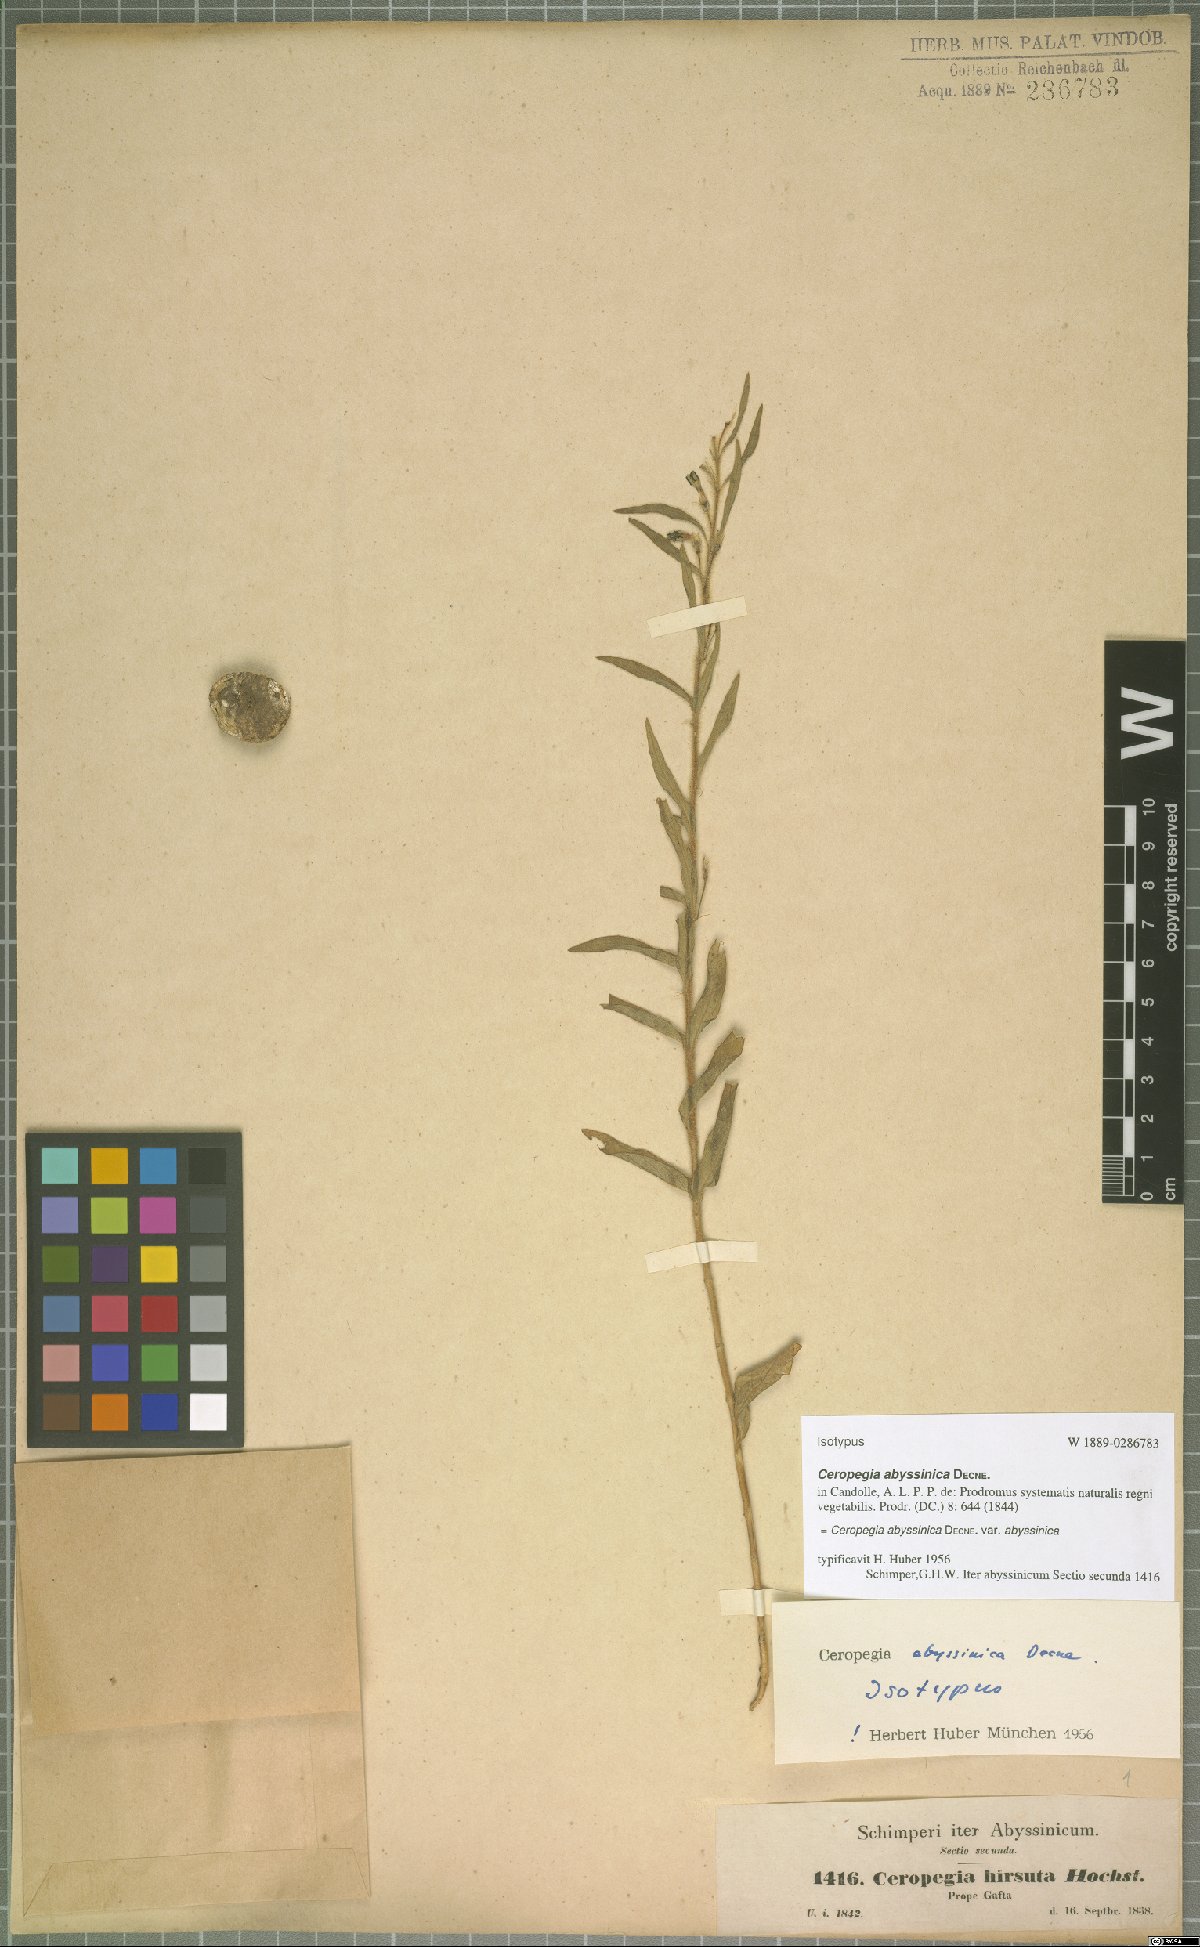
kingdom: Plantae
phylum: Tracheophyta
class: Magnoliopsida
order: Gentianales
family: Apocynaceae
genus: Ceropegia
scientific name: Ceropegia abyssinica
